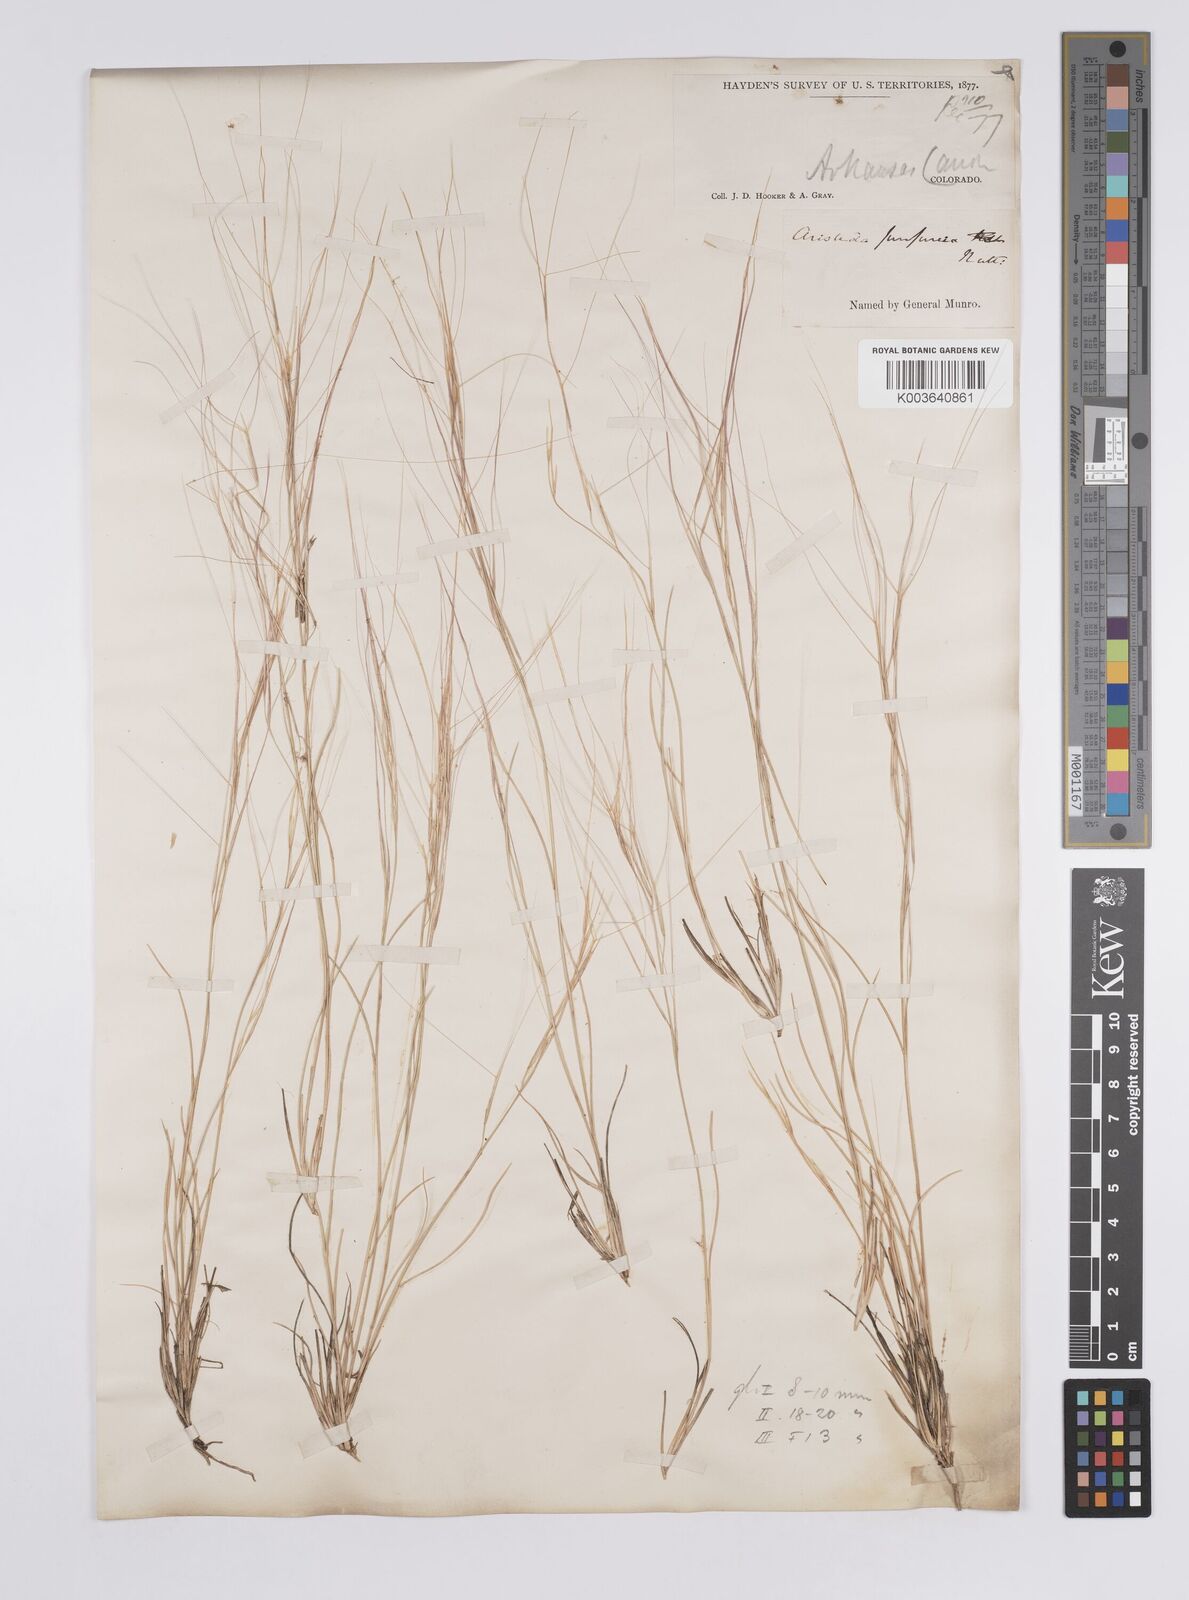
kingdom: Plantae
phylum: Tracheophyta
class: Liliopsida
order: Poales
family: Poaceae
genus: Aristida
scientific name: Aristida purpurea
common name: Purple threeawn
